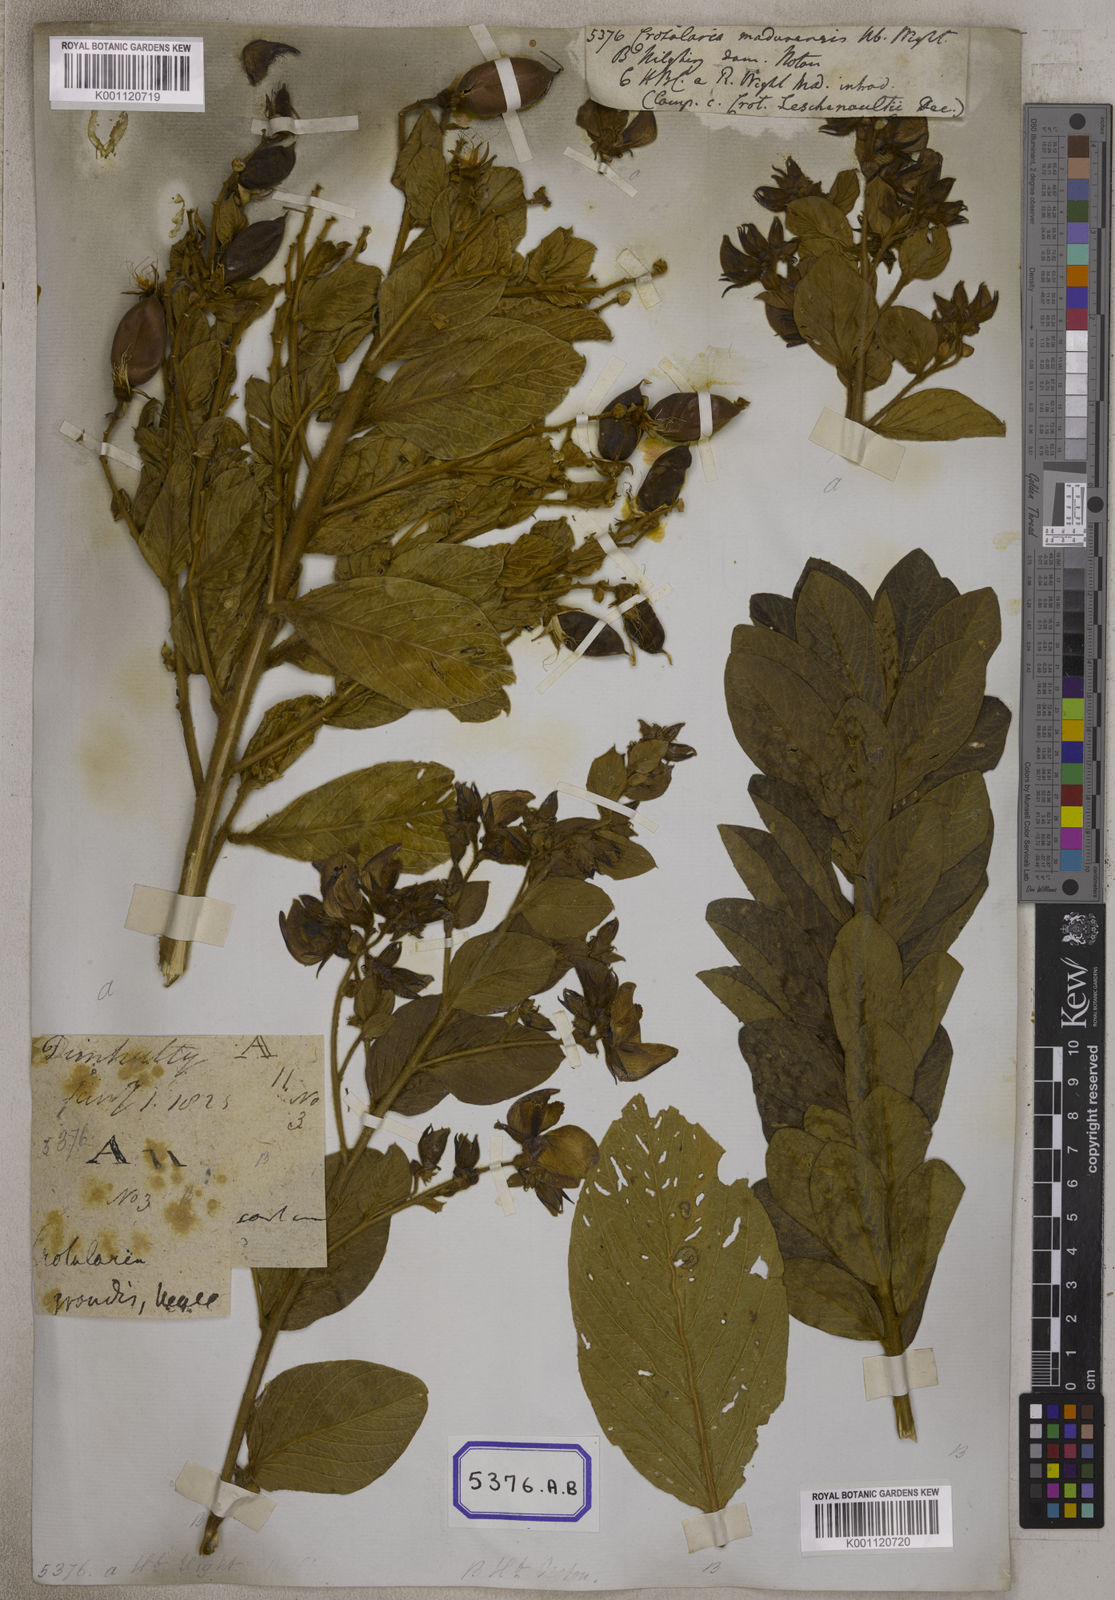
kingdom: Plantae
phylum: Tracheophyta
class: Magnoliopsida
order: Fabales
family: Fabaceae
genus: Crotalaria
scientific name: Crotalaria madurensis
